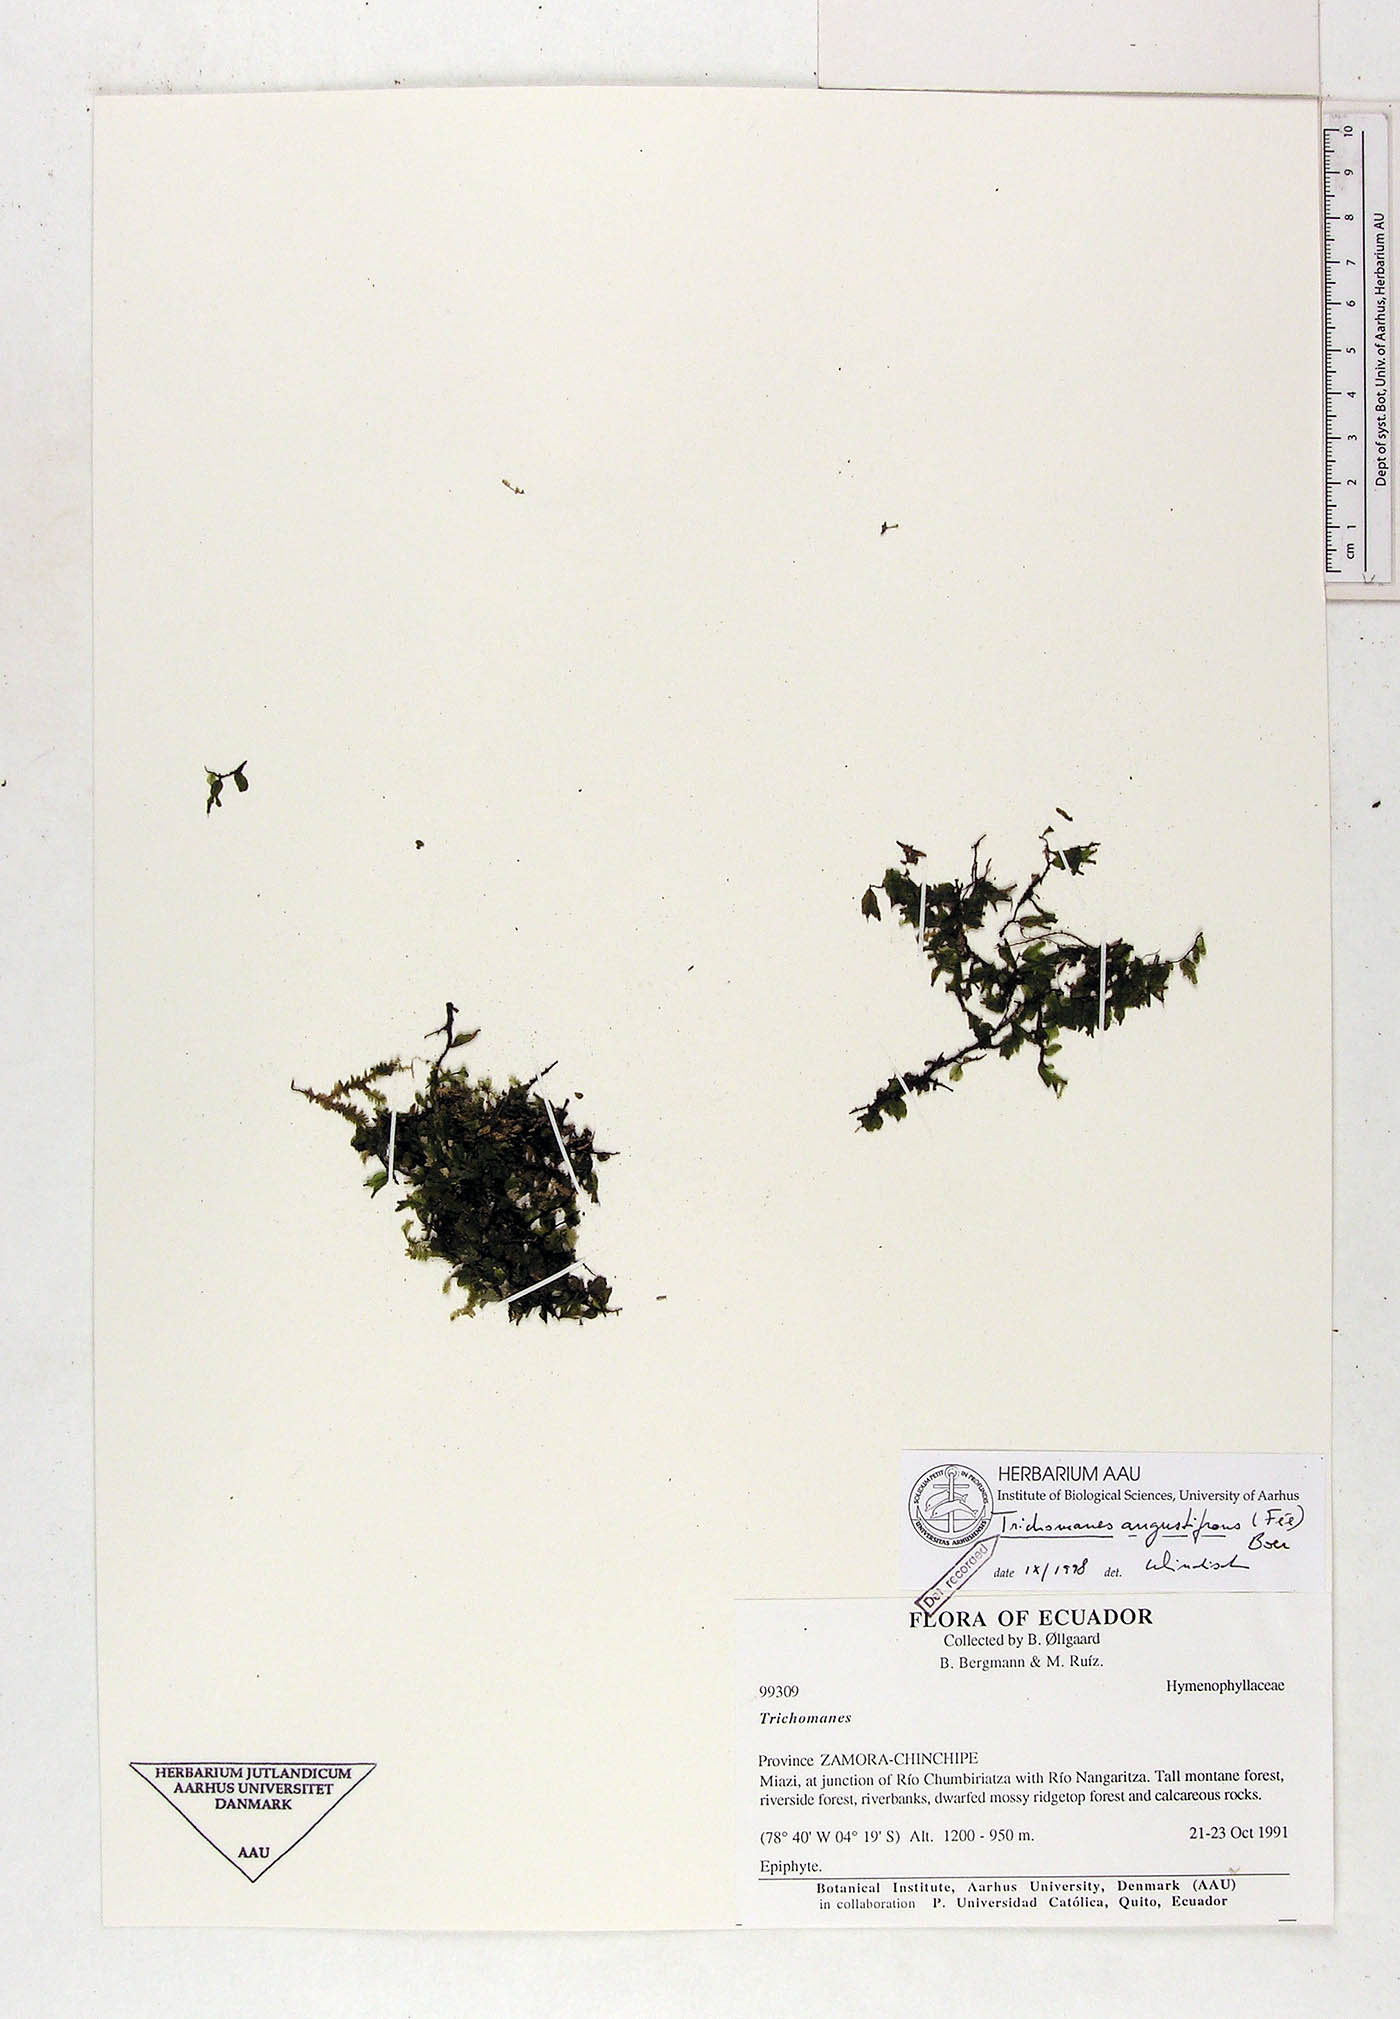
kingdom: Plantae
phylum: Tracheophyta
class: Polypodiopsida
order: Hymenophyllales
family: Hymenophyllaceae
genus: Didymoglossum
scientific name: Didymoglossum angustifrons
